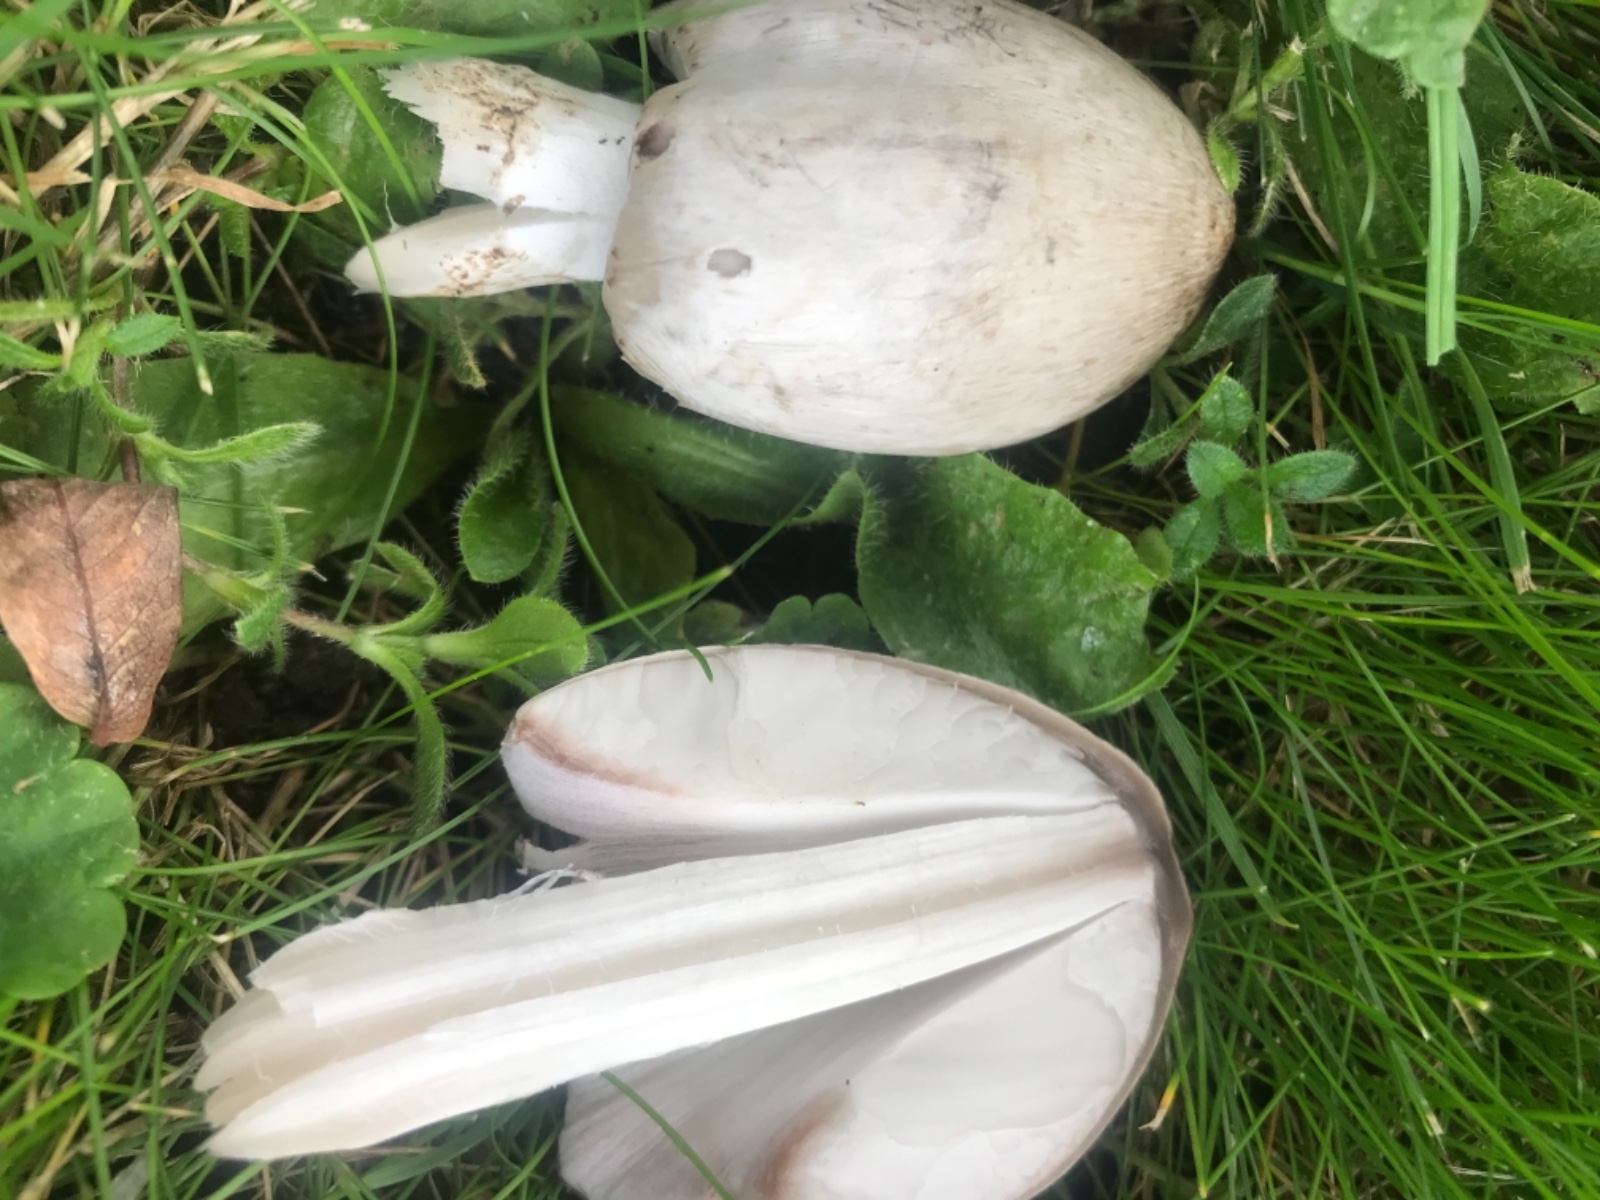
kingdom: Fungi
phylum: Basidiomycota
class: Agaricomycetes
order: Agaricales
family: Psathyrellaceae
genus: Coprinopsis
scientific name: Coprinopsis atramentaria
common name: almindelig blækhat
